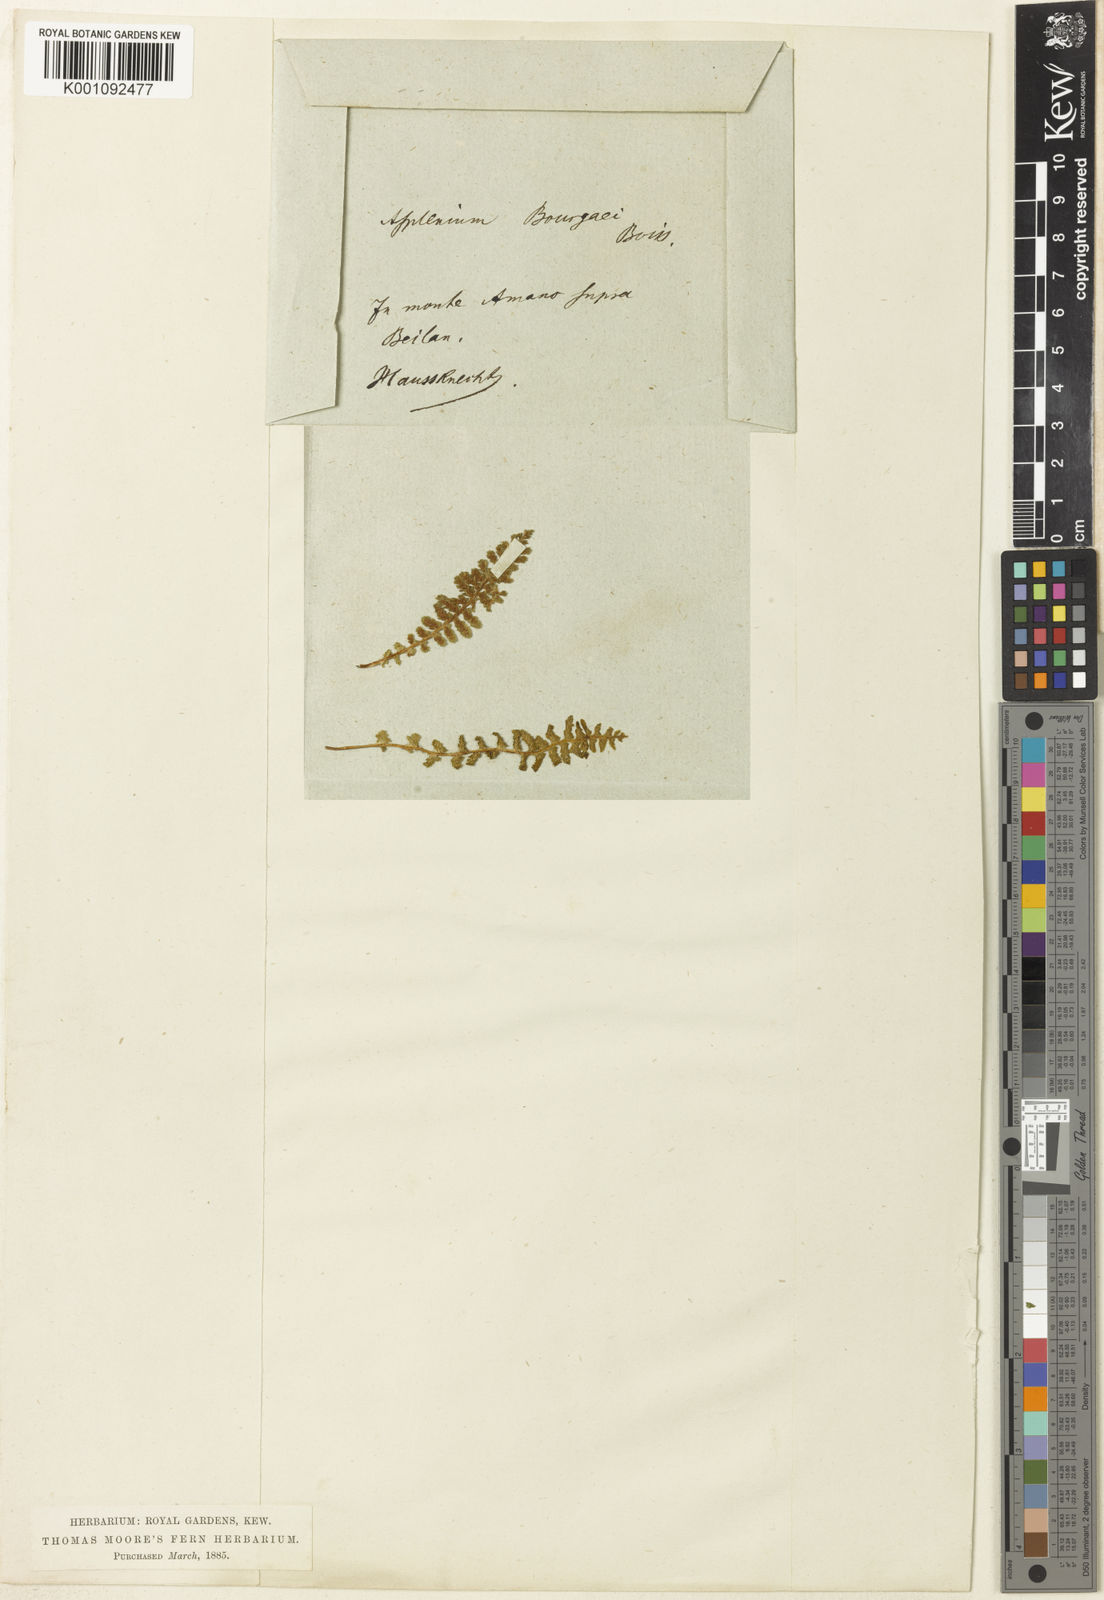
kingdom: Plantae
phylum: Tracheophyta
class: Polypodiopsida
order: Polypodiales
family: Aspleniaceae
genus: Asplenium
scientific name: Asplenium bourgaei
